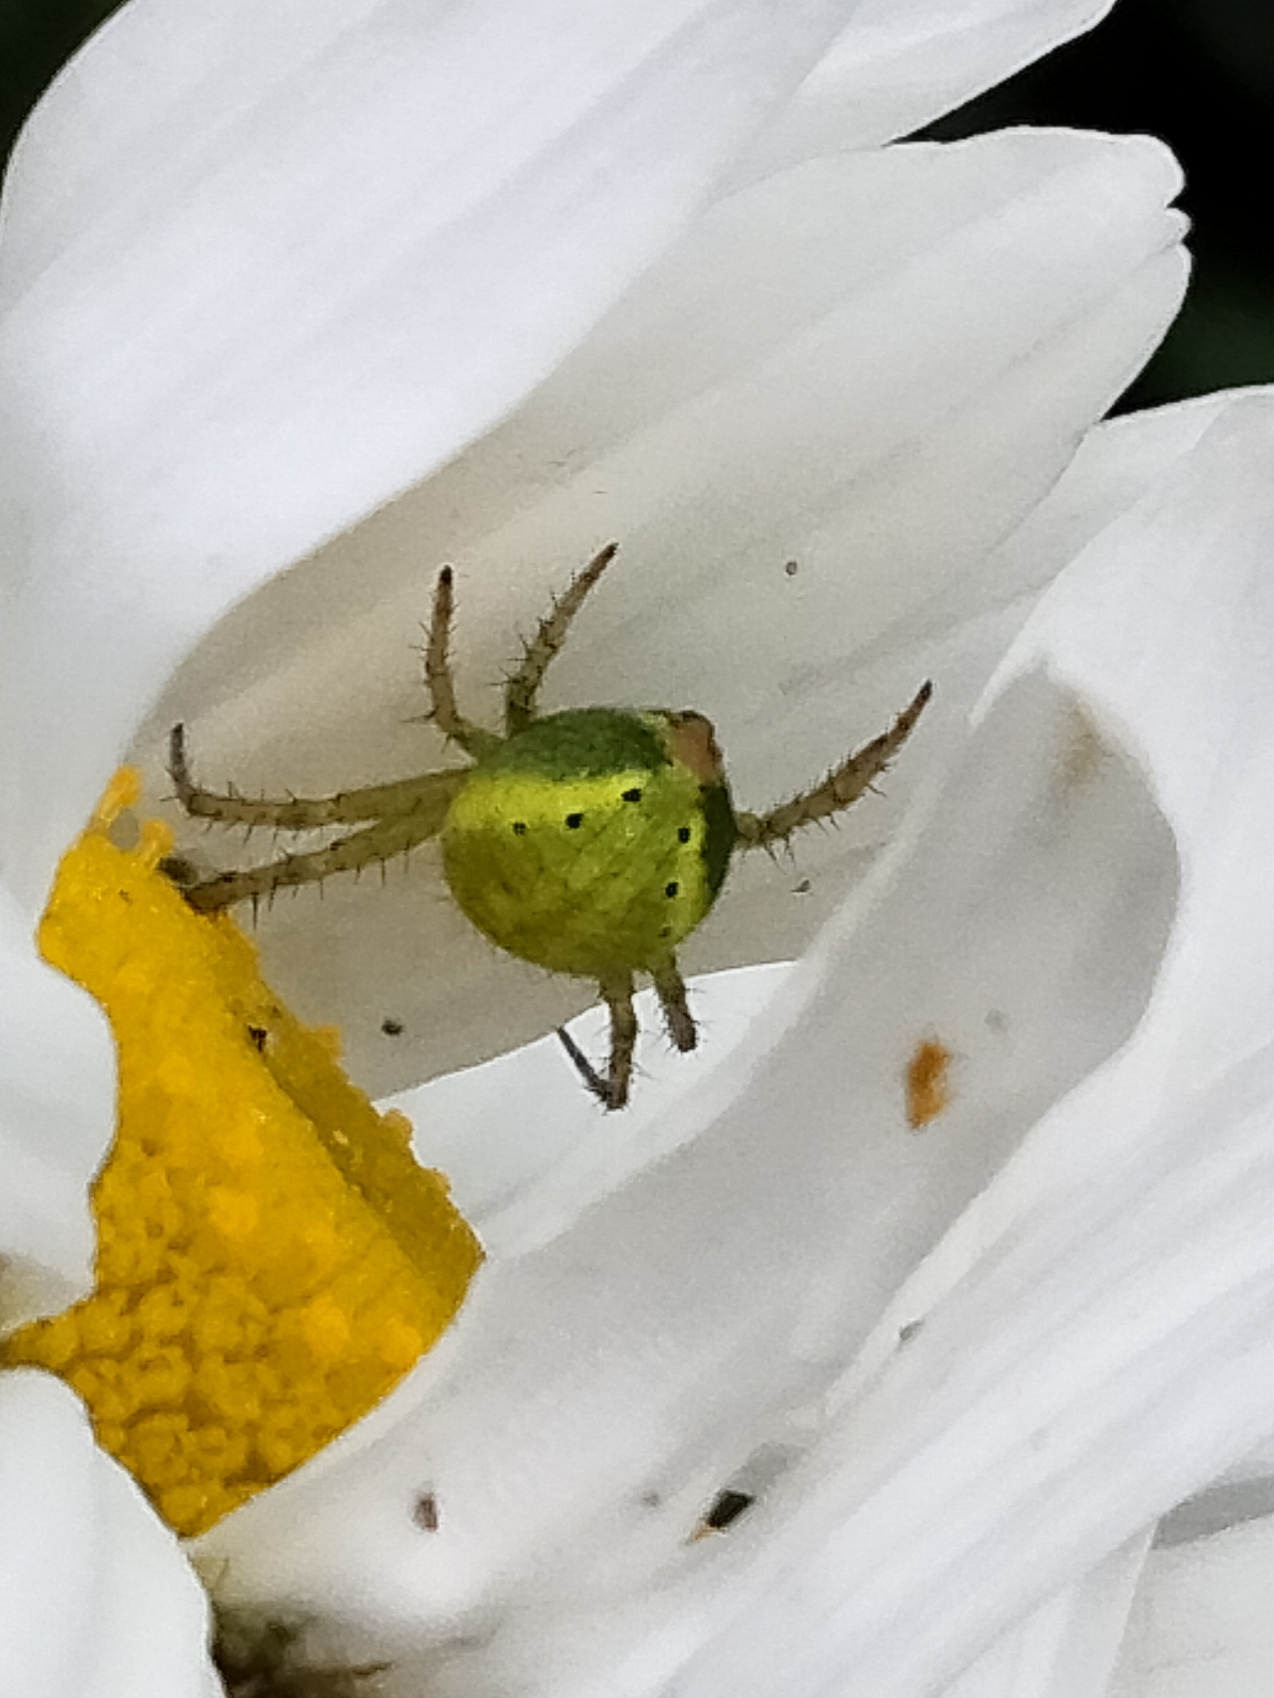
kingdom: Animalia
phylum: Arthropoda
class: Arachnida
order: Araneae
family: Araneidae
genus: Araniella
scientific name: Araniella
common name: Agurkeedderkopslægten
